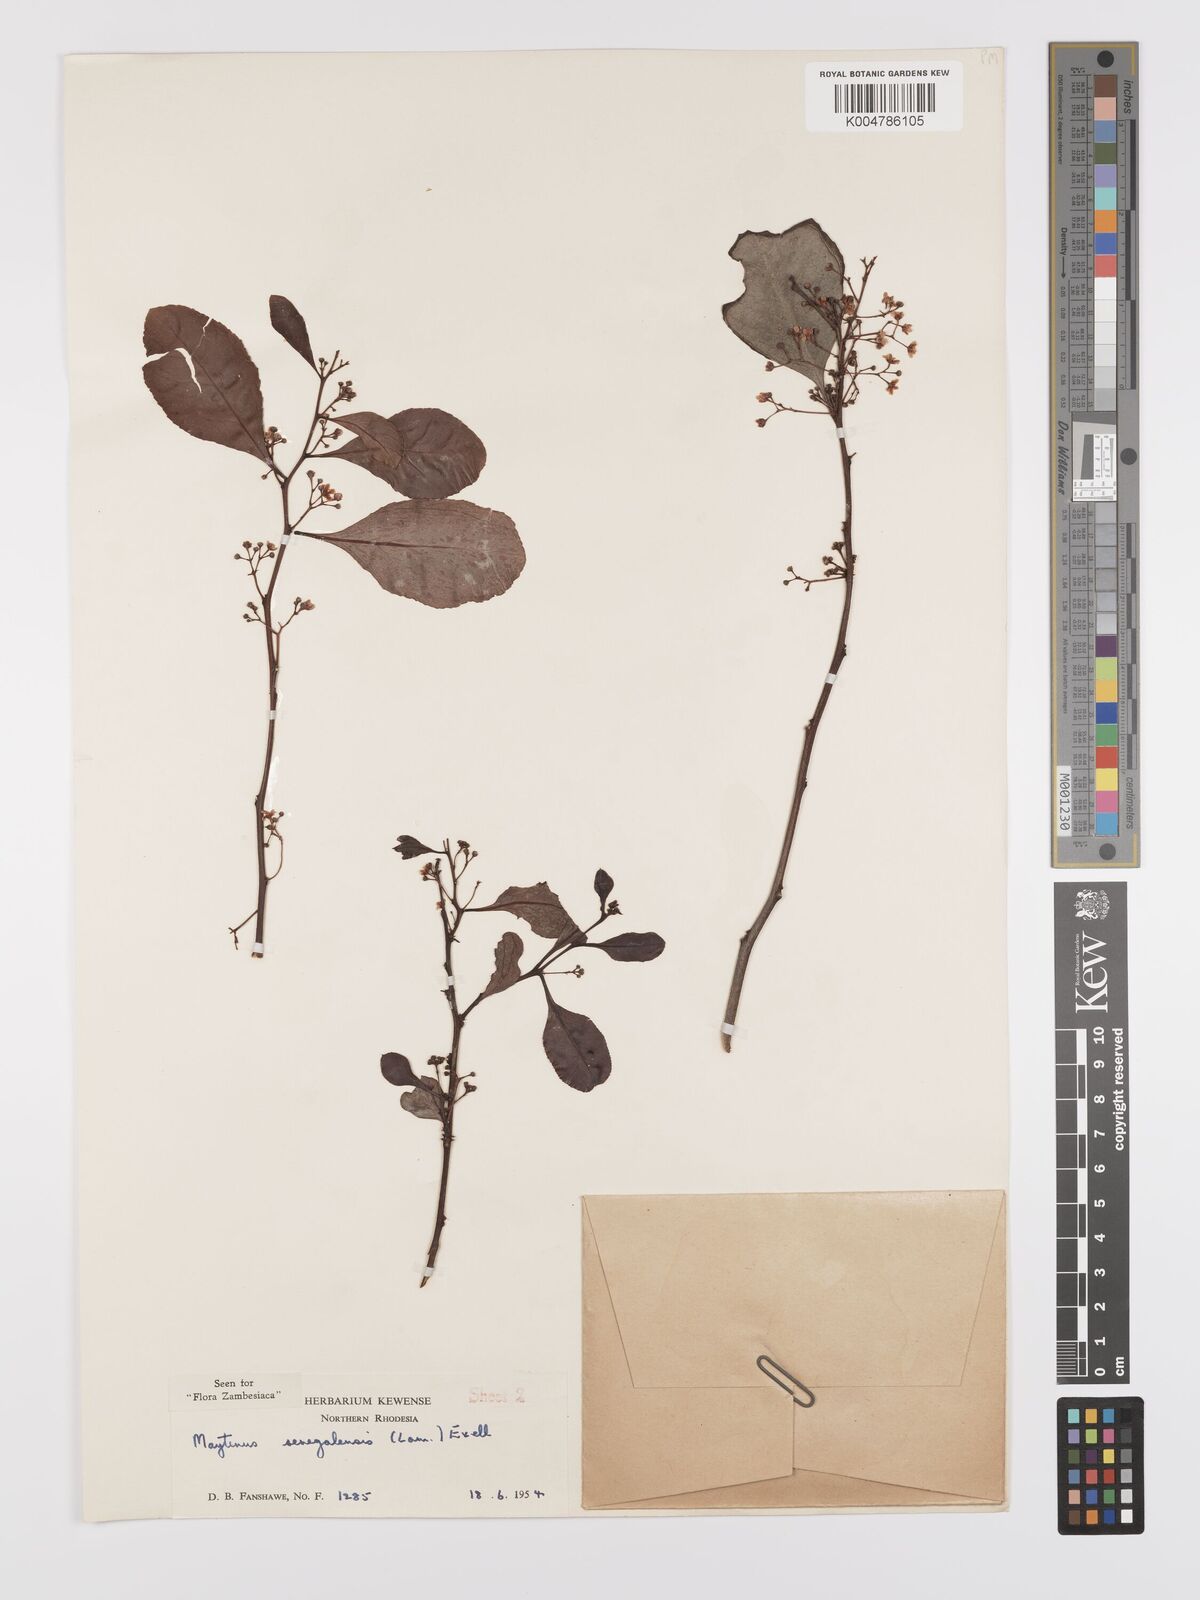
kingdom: Plantae
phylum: Tracheophyta
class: Magnoliopsida
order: Celastrales
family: Celastraceae
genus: Gymnosporia
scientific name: Gymnosporia senegalensis
